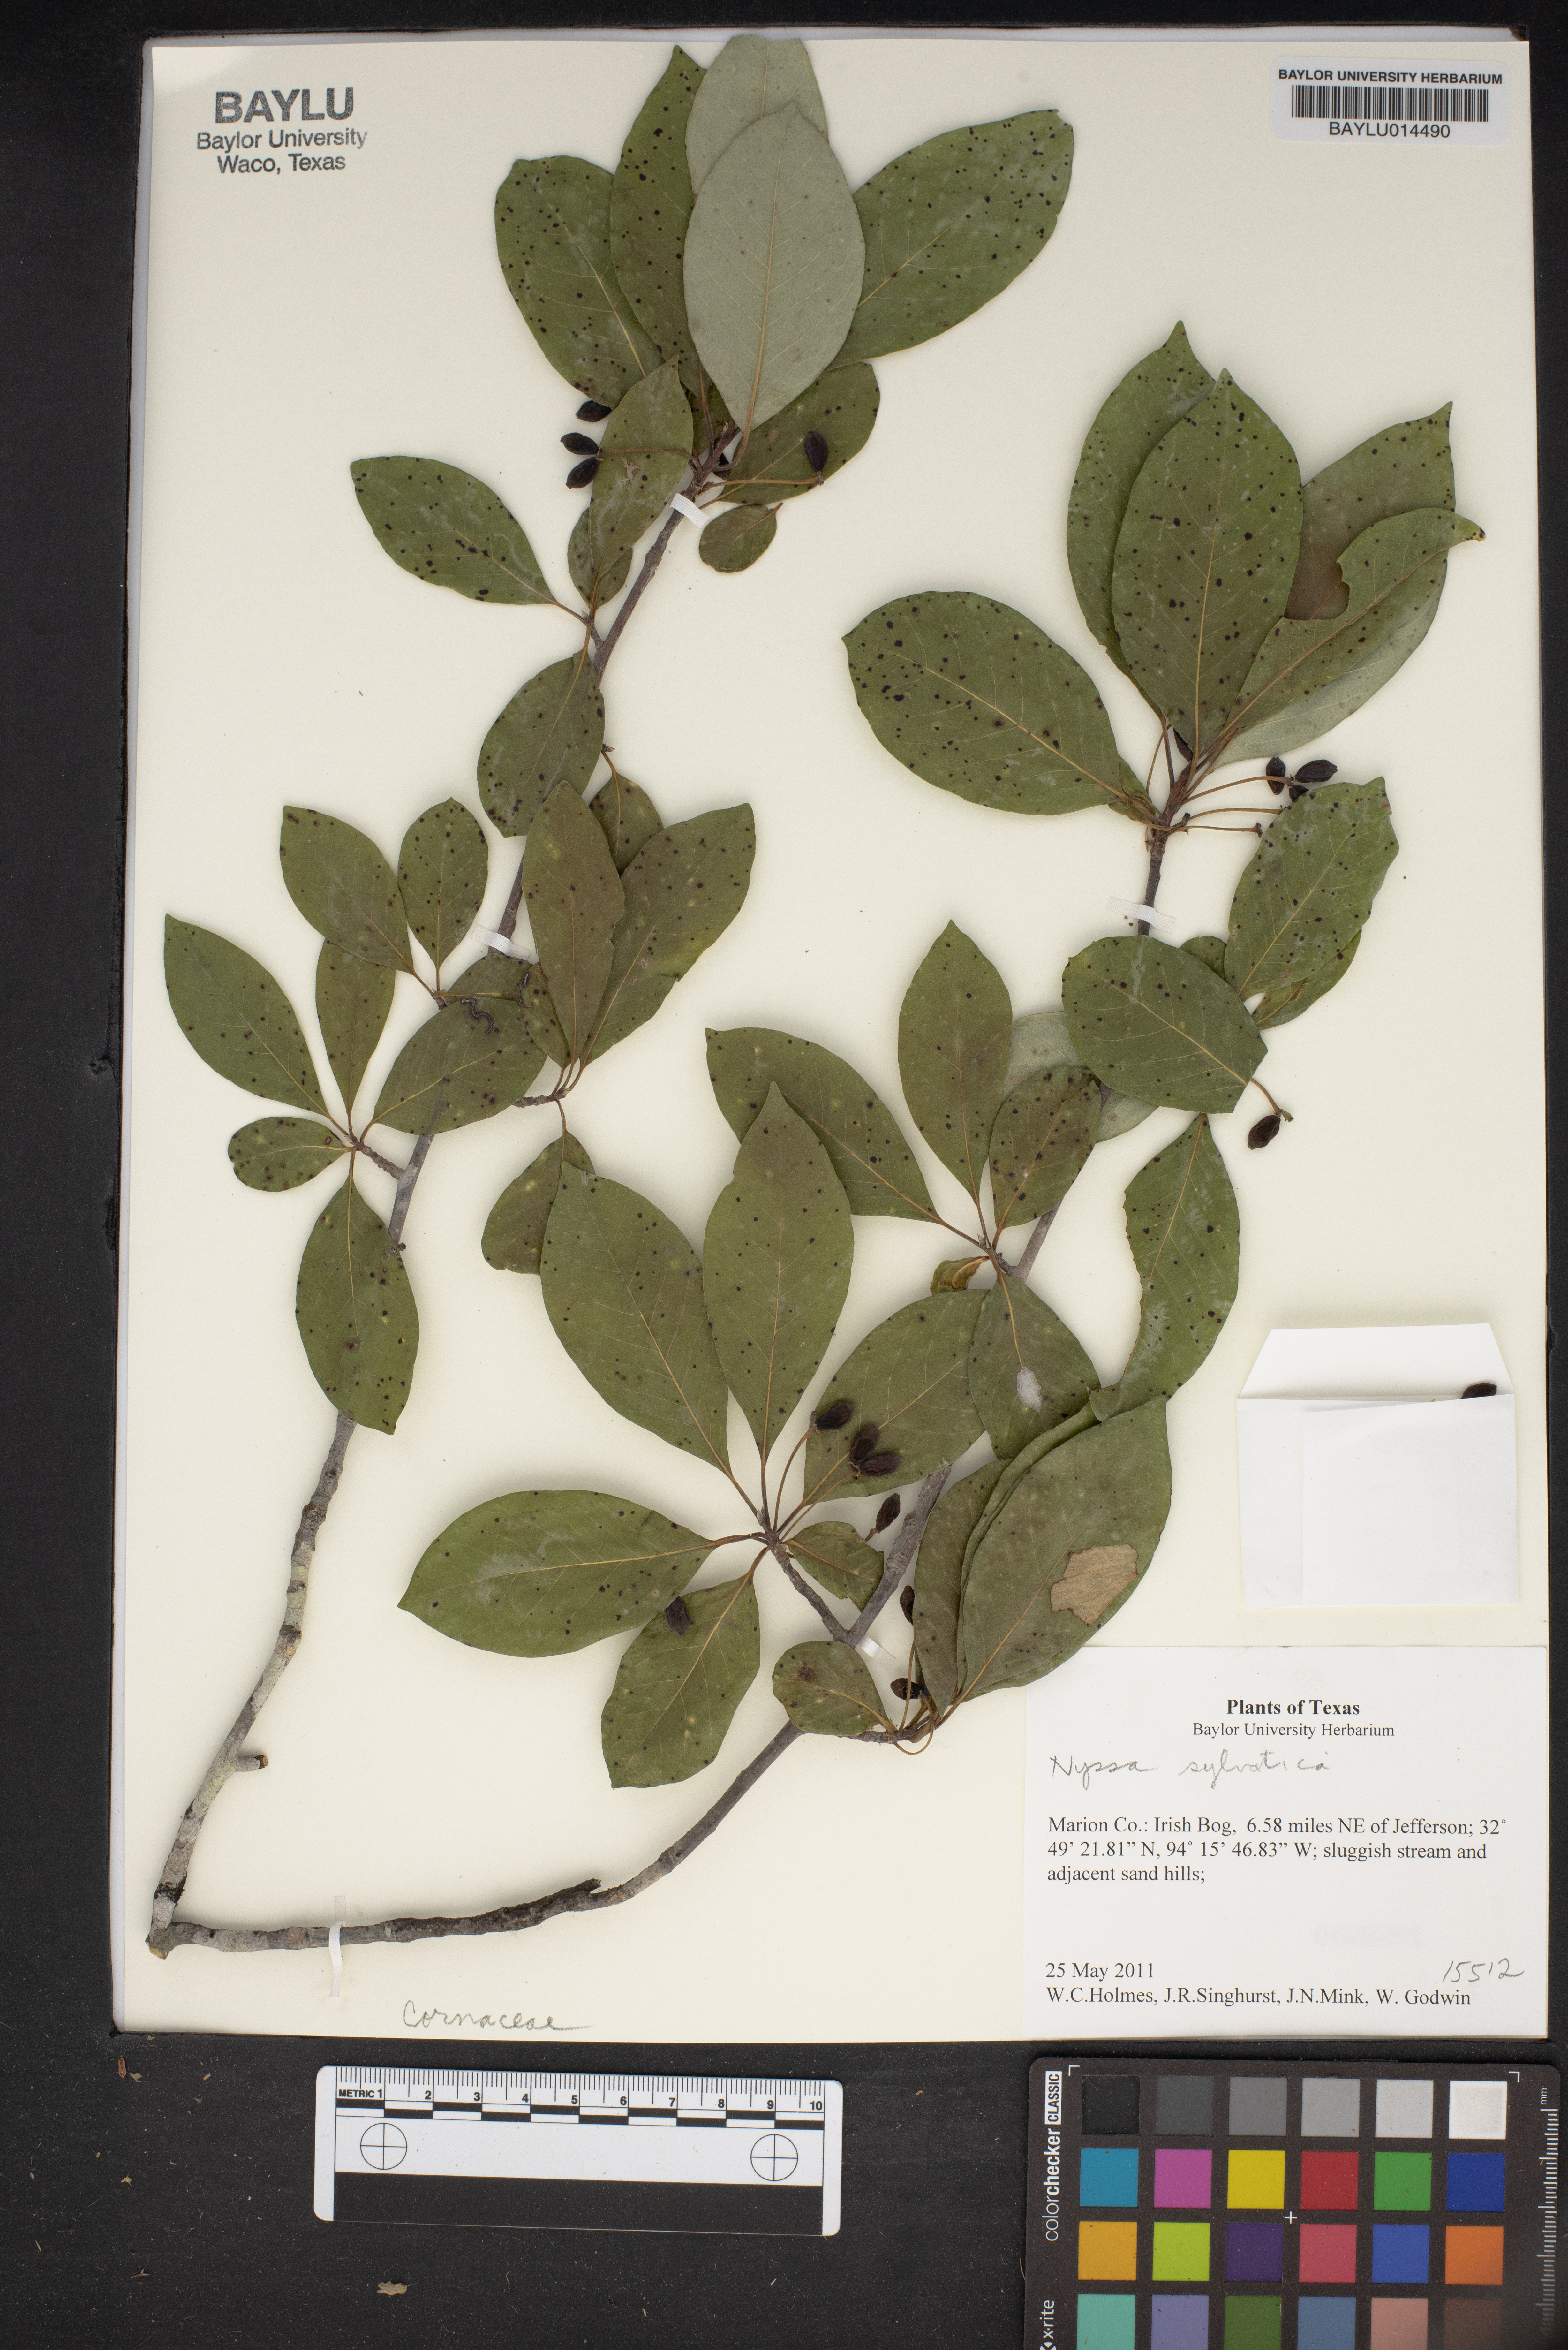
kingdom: Plantae
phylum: Tracheophyta
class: Magnoliopsida
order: Cornales
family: Nyssaceae
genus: Nyssa
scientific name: Nyssa sylvatica
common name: Black tupelo
